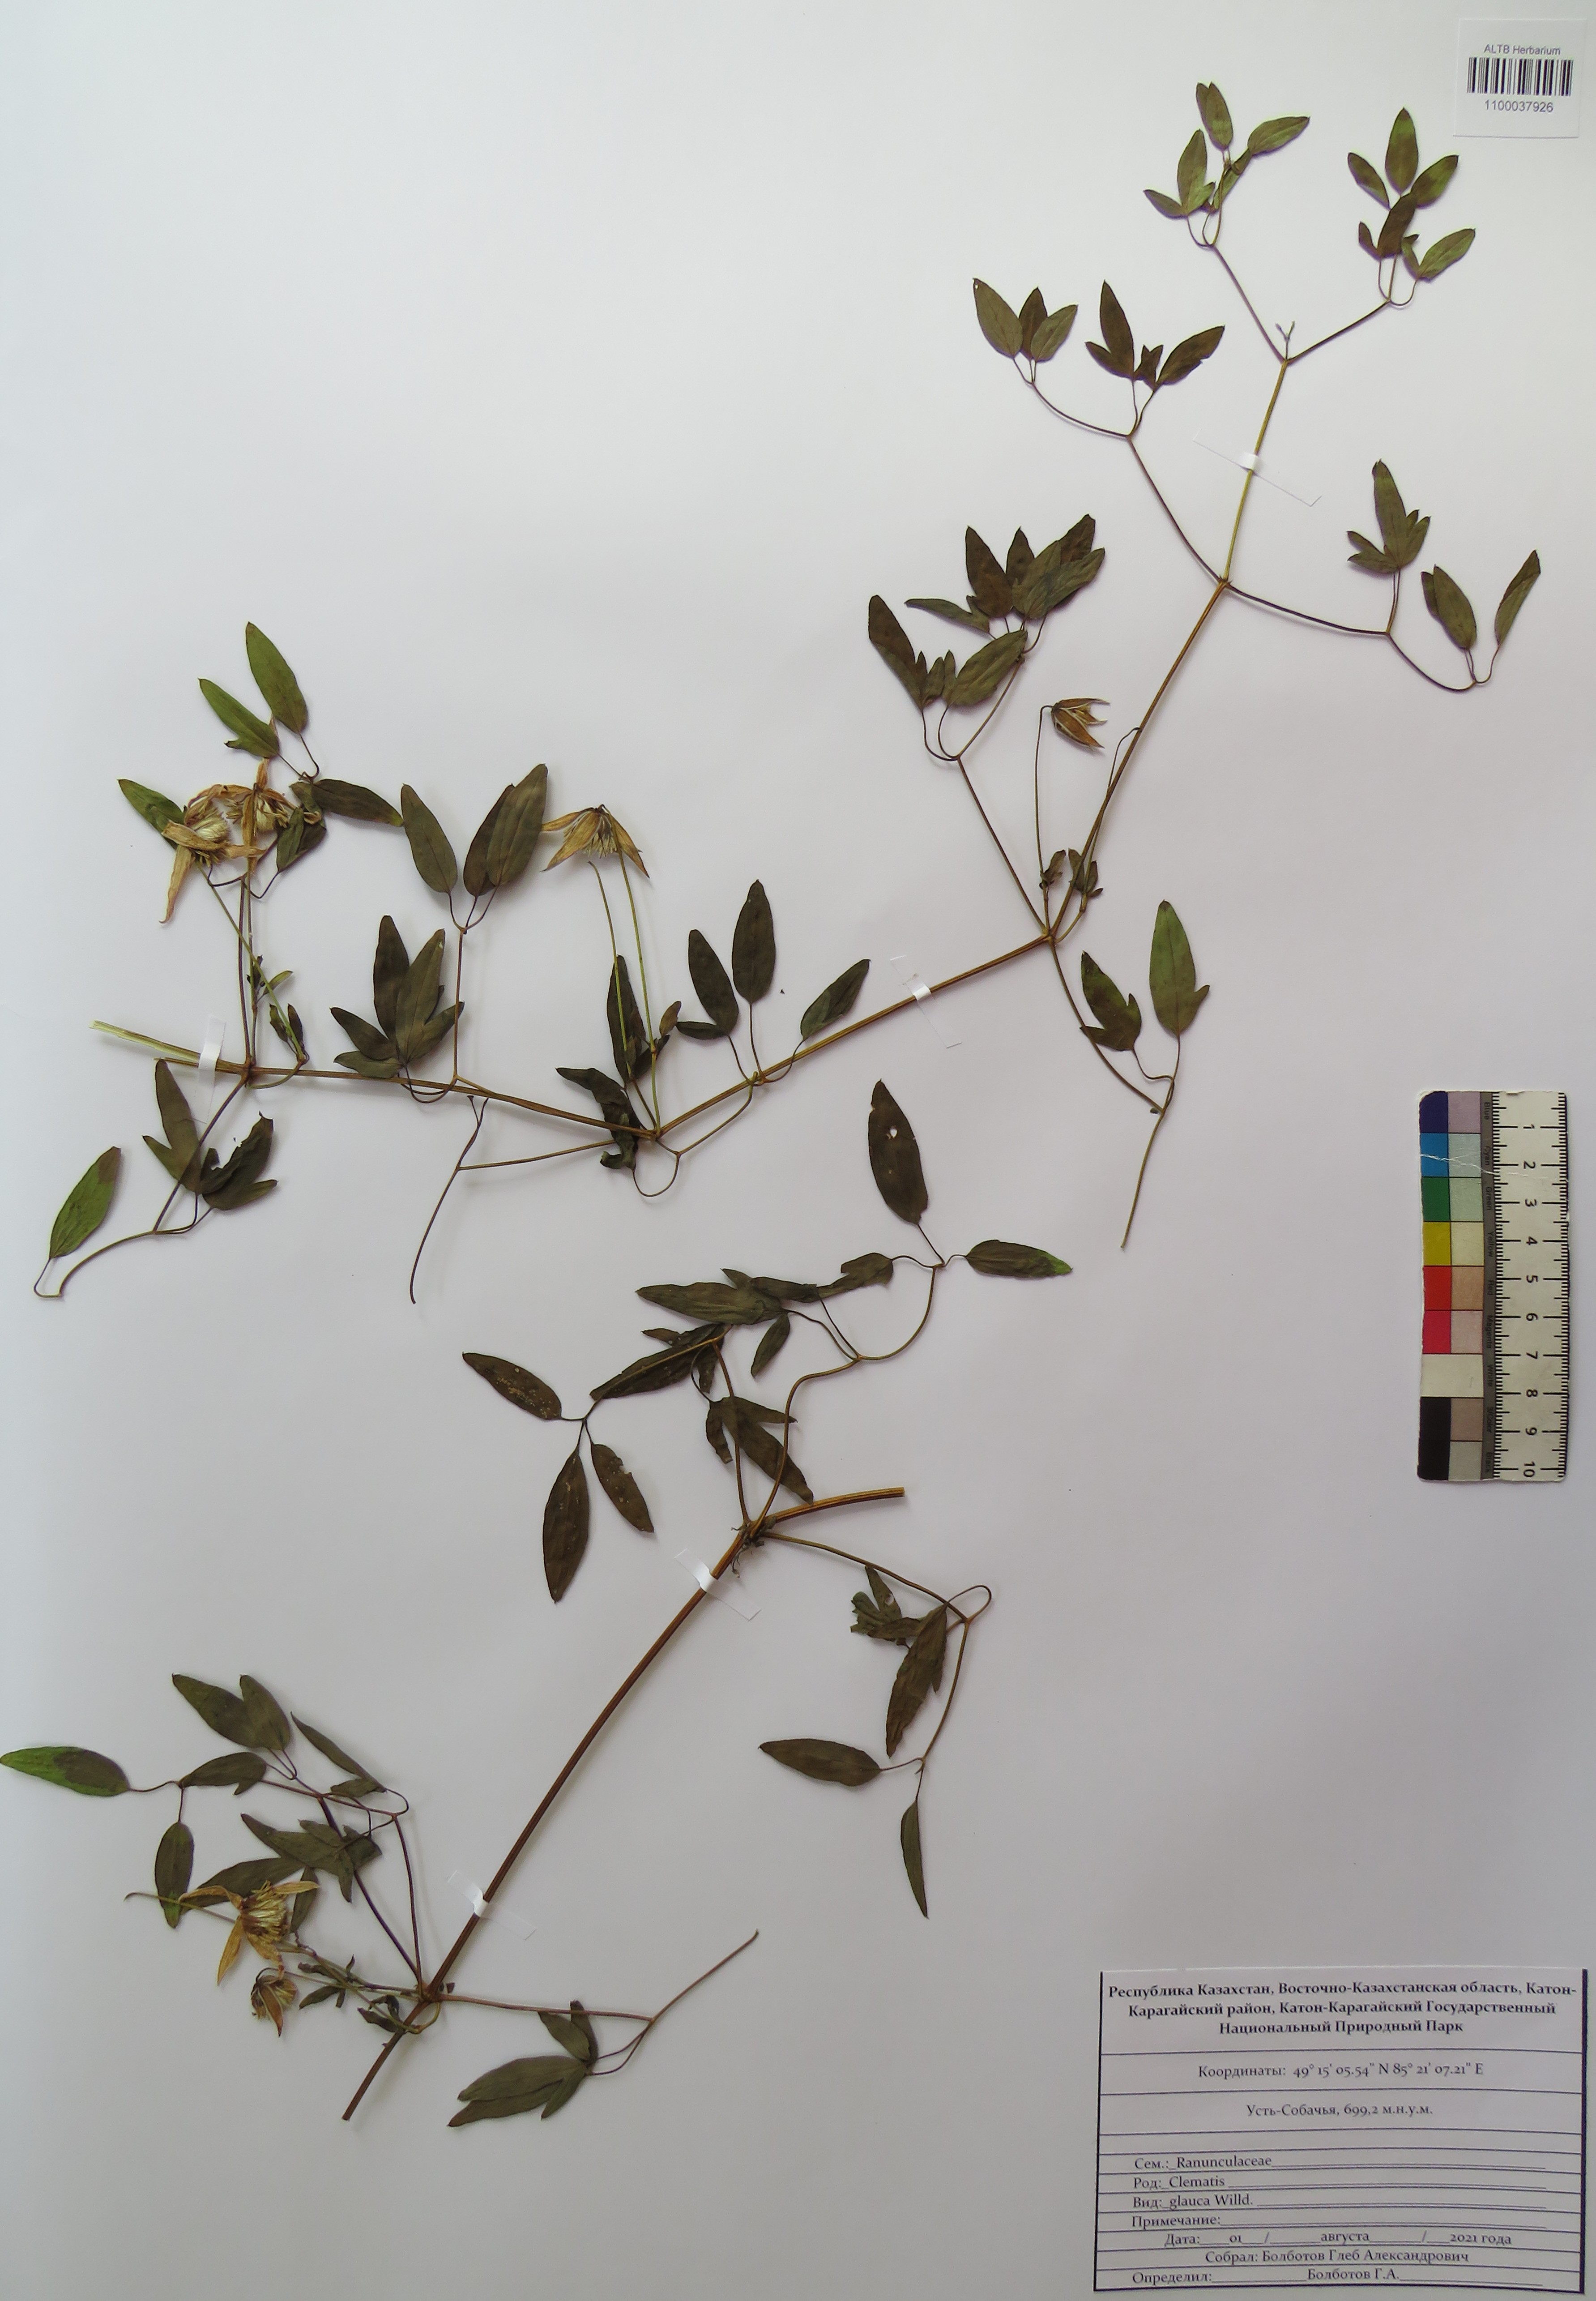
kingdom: Plantae
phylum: Tracheophyta
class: Magnoliopsida
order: Ranunculales
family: Ranunculaceae
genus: Clematis
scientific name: Clematis glauca
